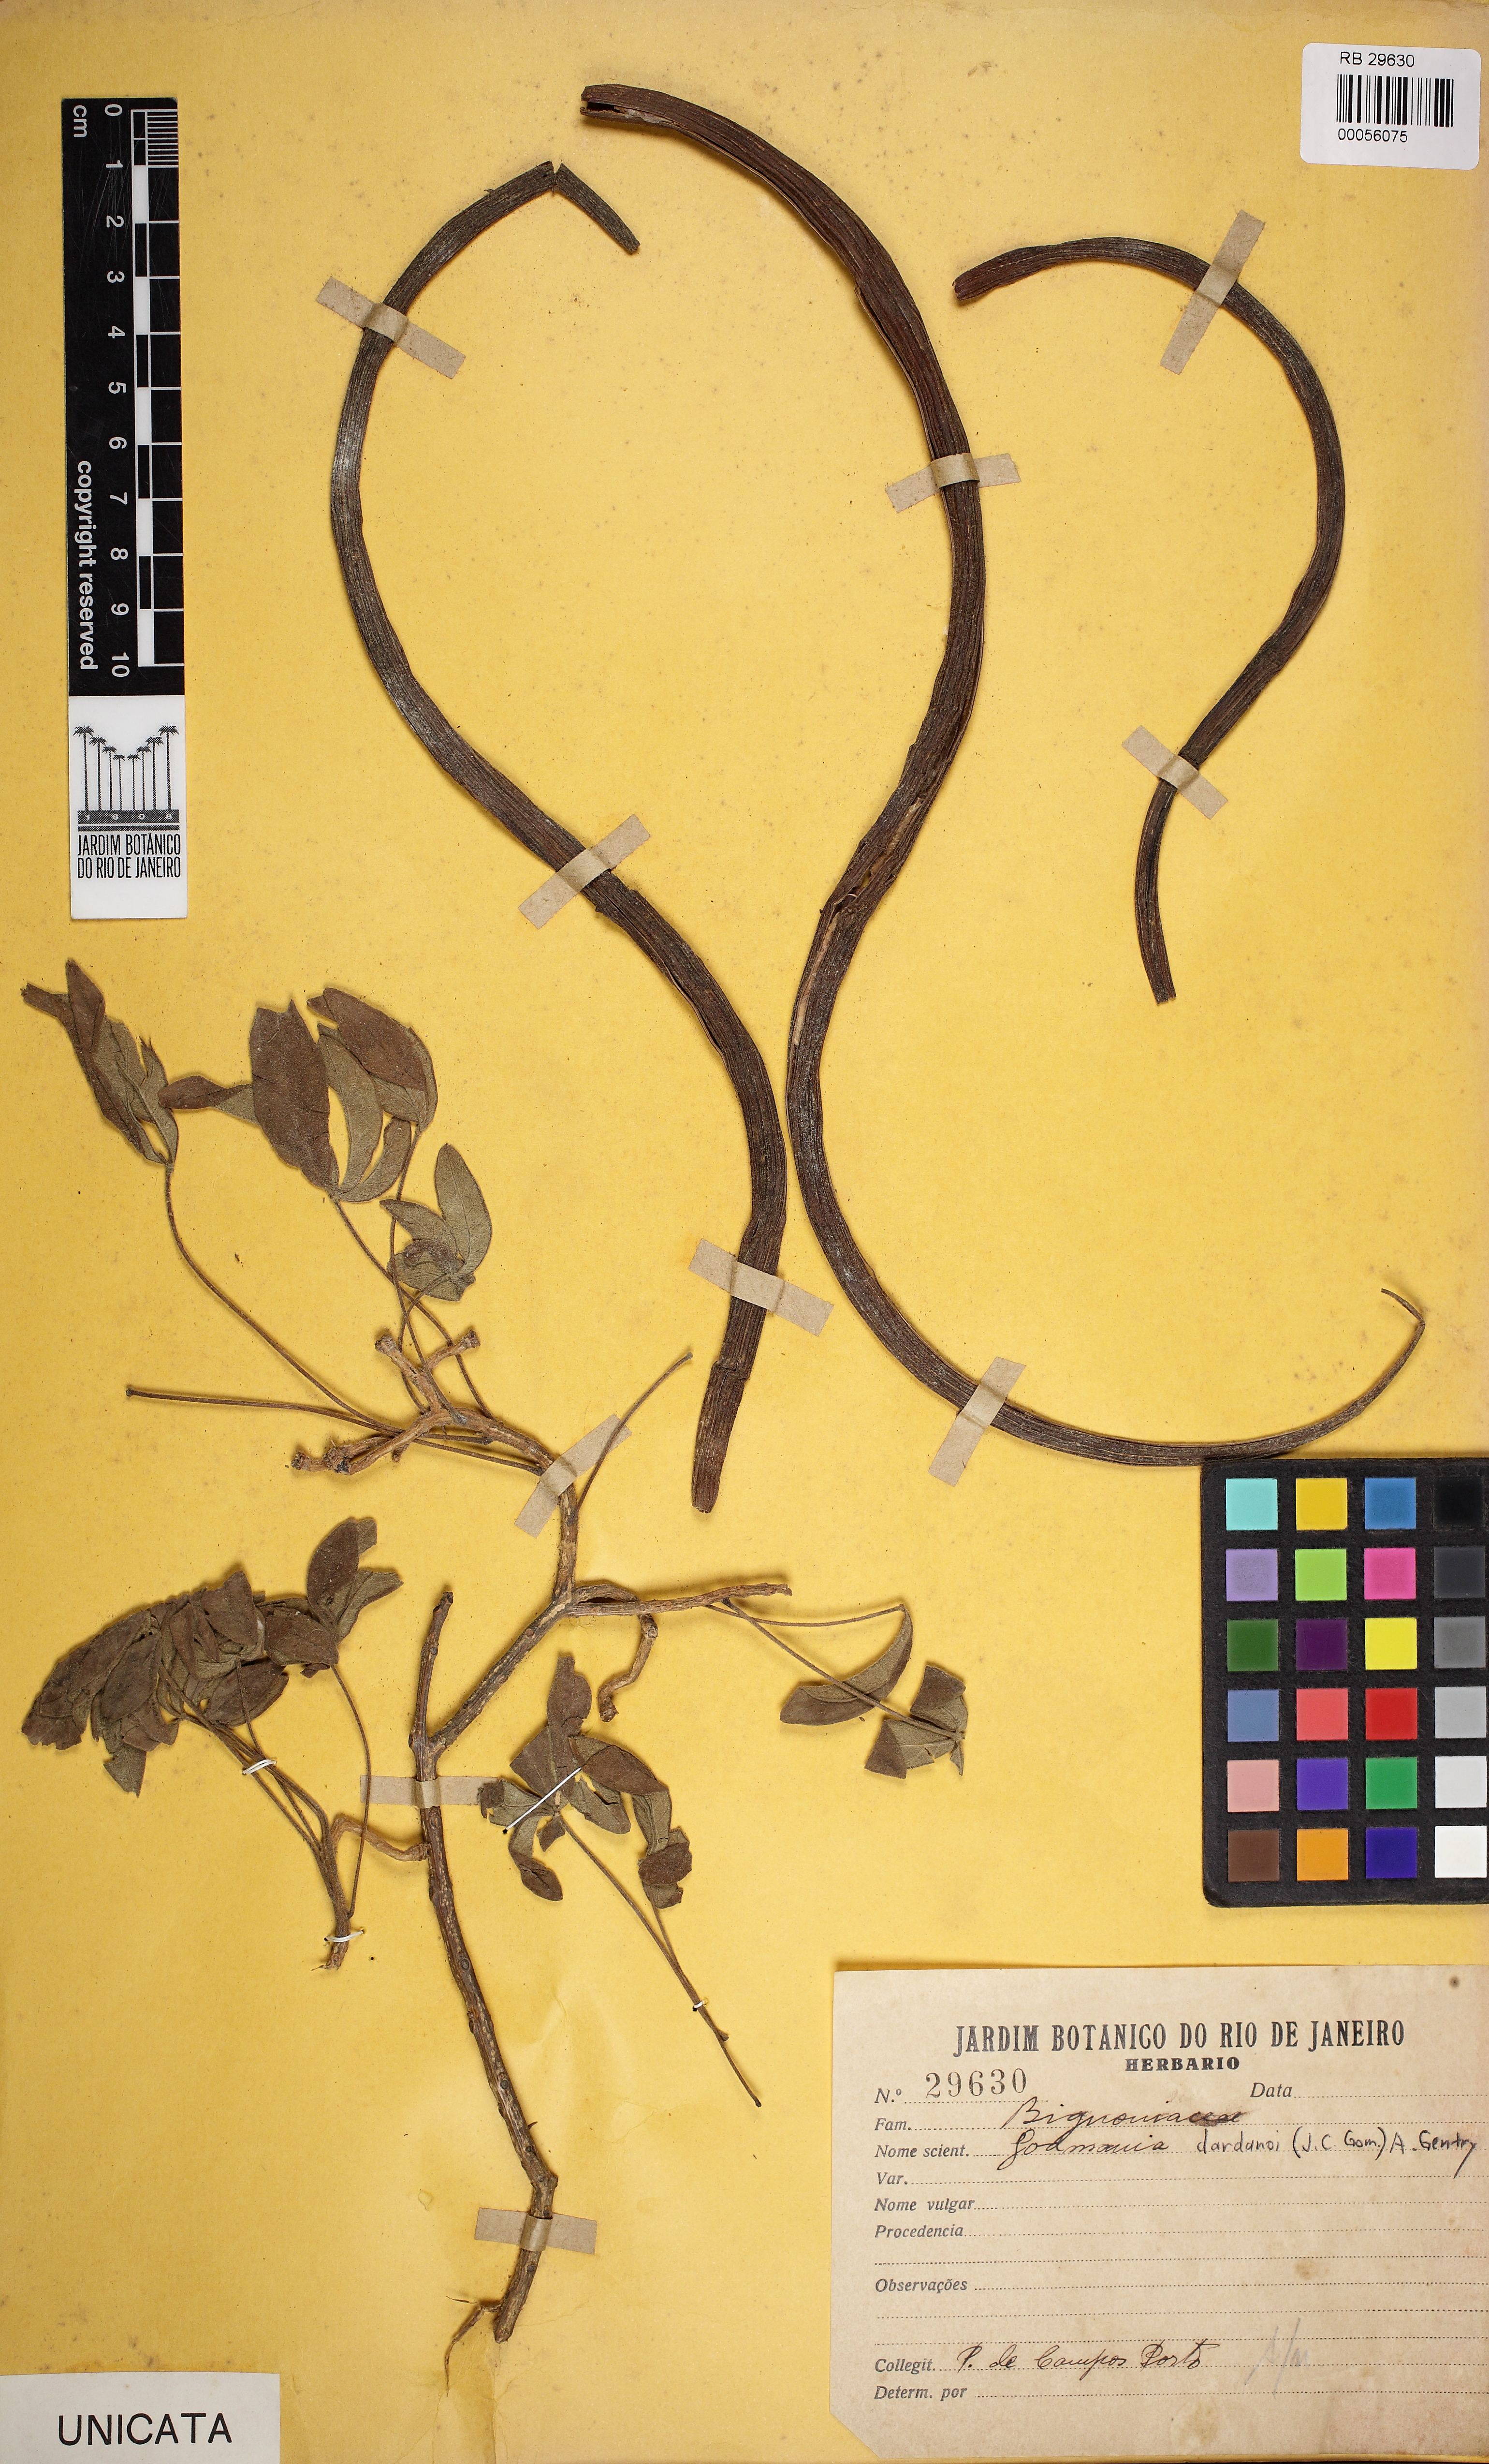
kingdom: Plantae
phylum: Tracheophyta
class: Magnoliopsida
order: Lamiales
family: Bignoniaceae
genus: Godmania
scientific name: Godmania dardanoi
